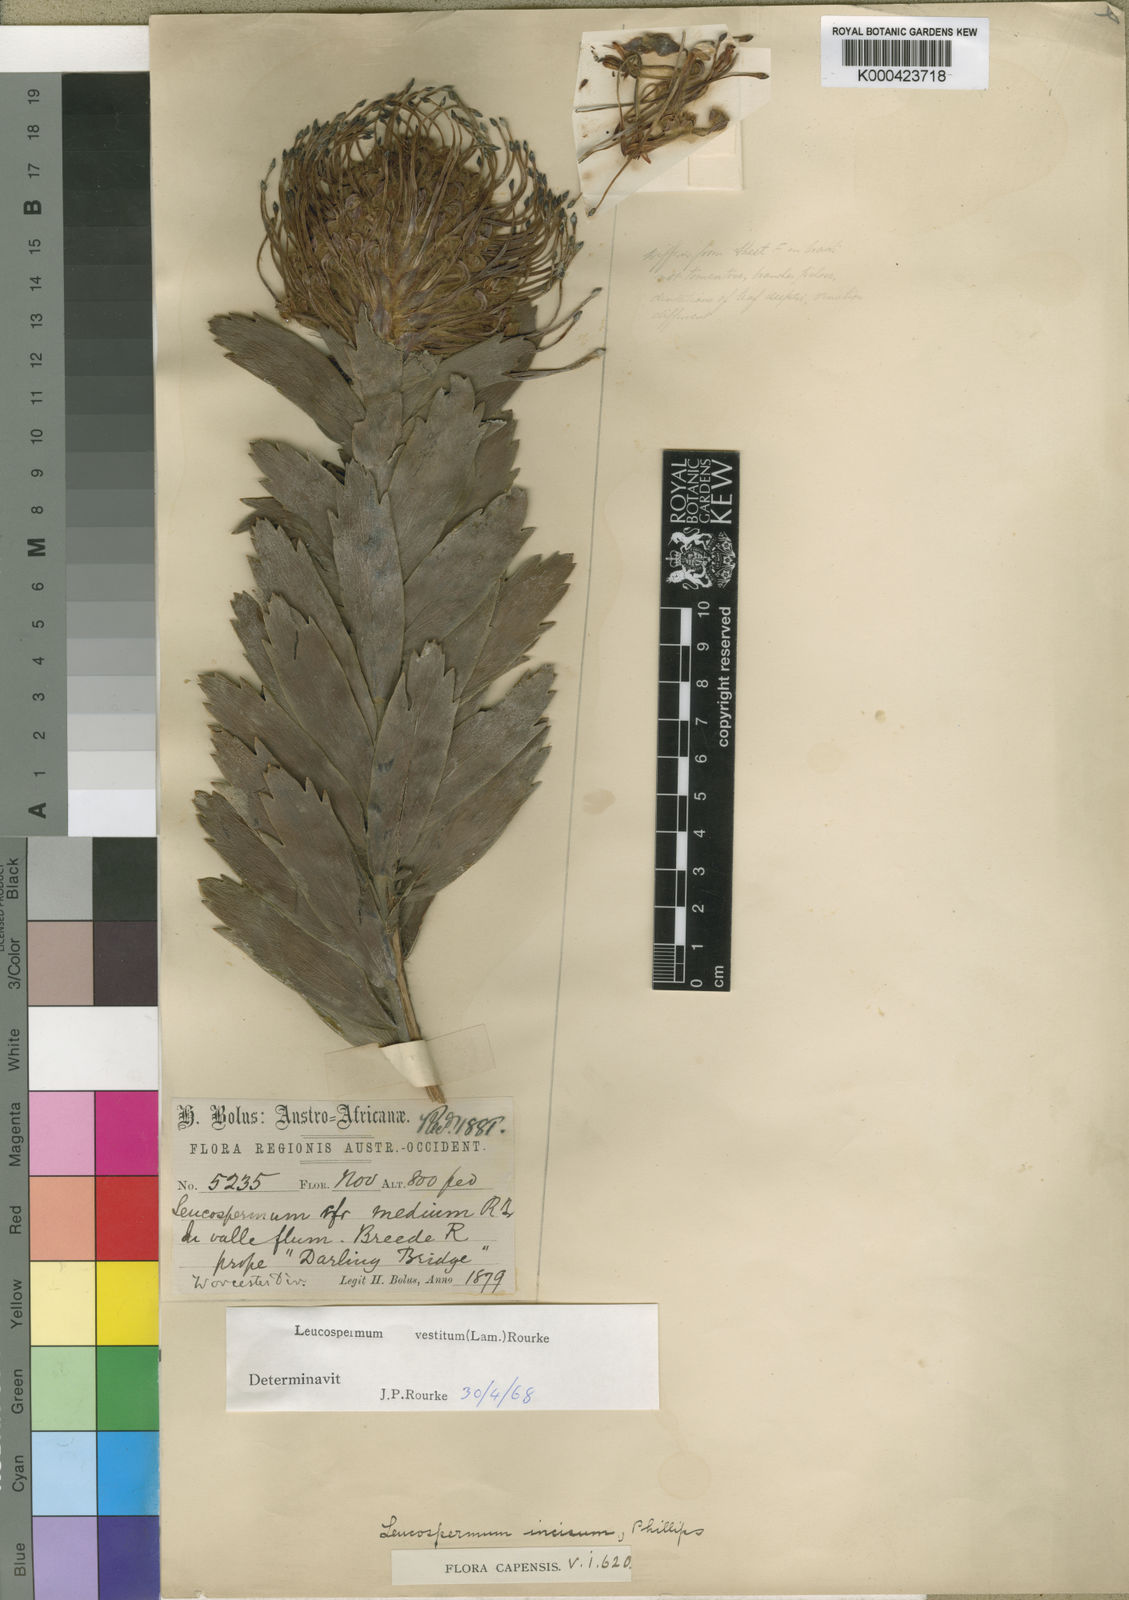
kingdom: Plantae
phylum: Tracheophyta
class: Magnoliopsida
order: Proteales
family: Proteaceae
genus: Leucospermum
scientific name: Leucospermum vestitum
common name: Silky-hair pincushion
